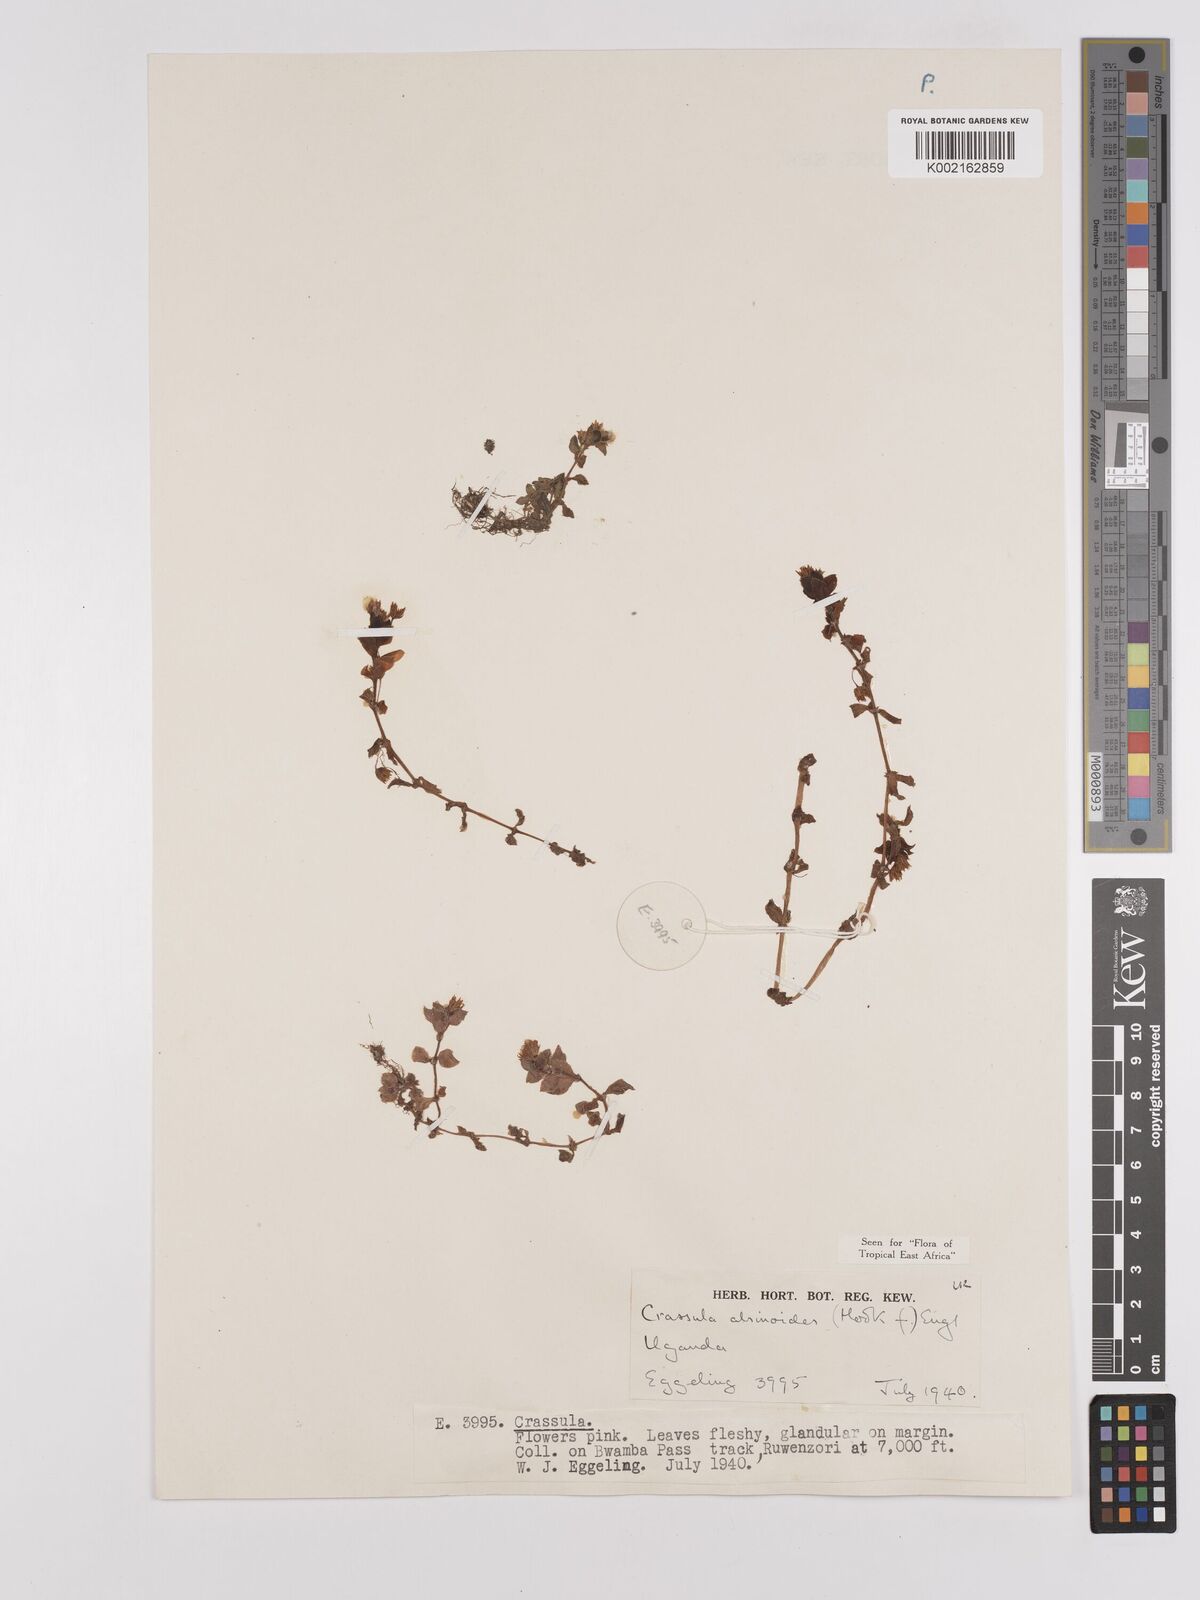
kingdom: Plantae
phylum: Tracheophyta
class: Magnoliopsida
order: Saxifragales
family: Crassulaceae
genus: Crassula
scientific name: Crassula alsinoides
